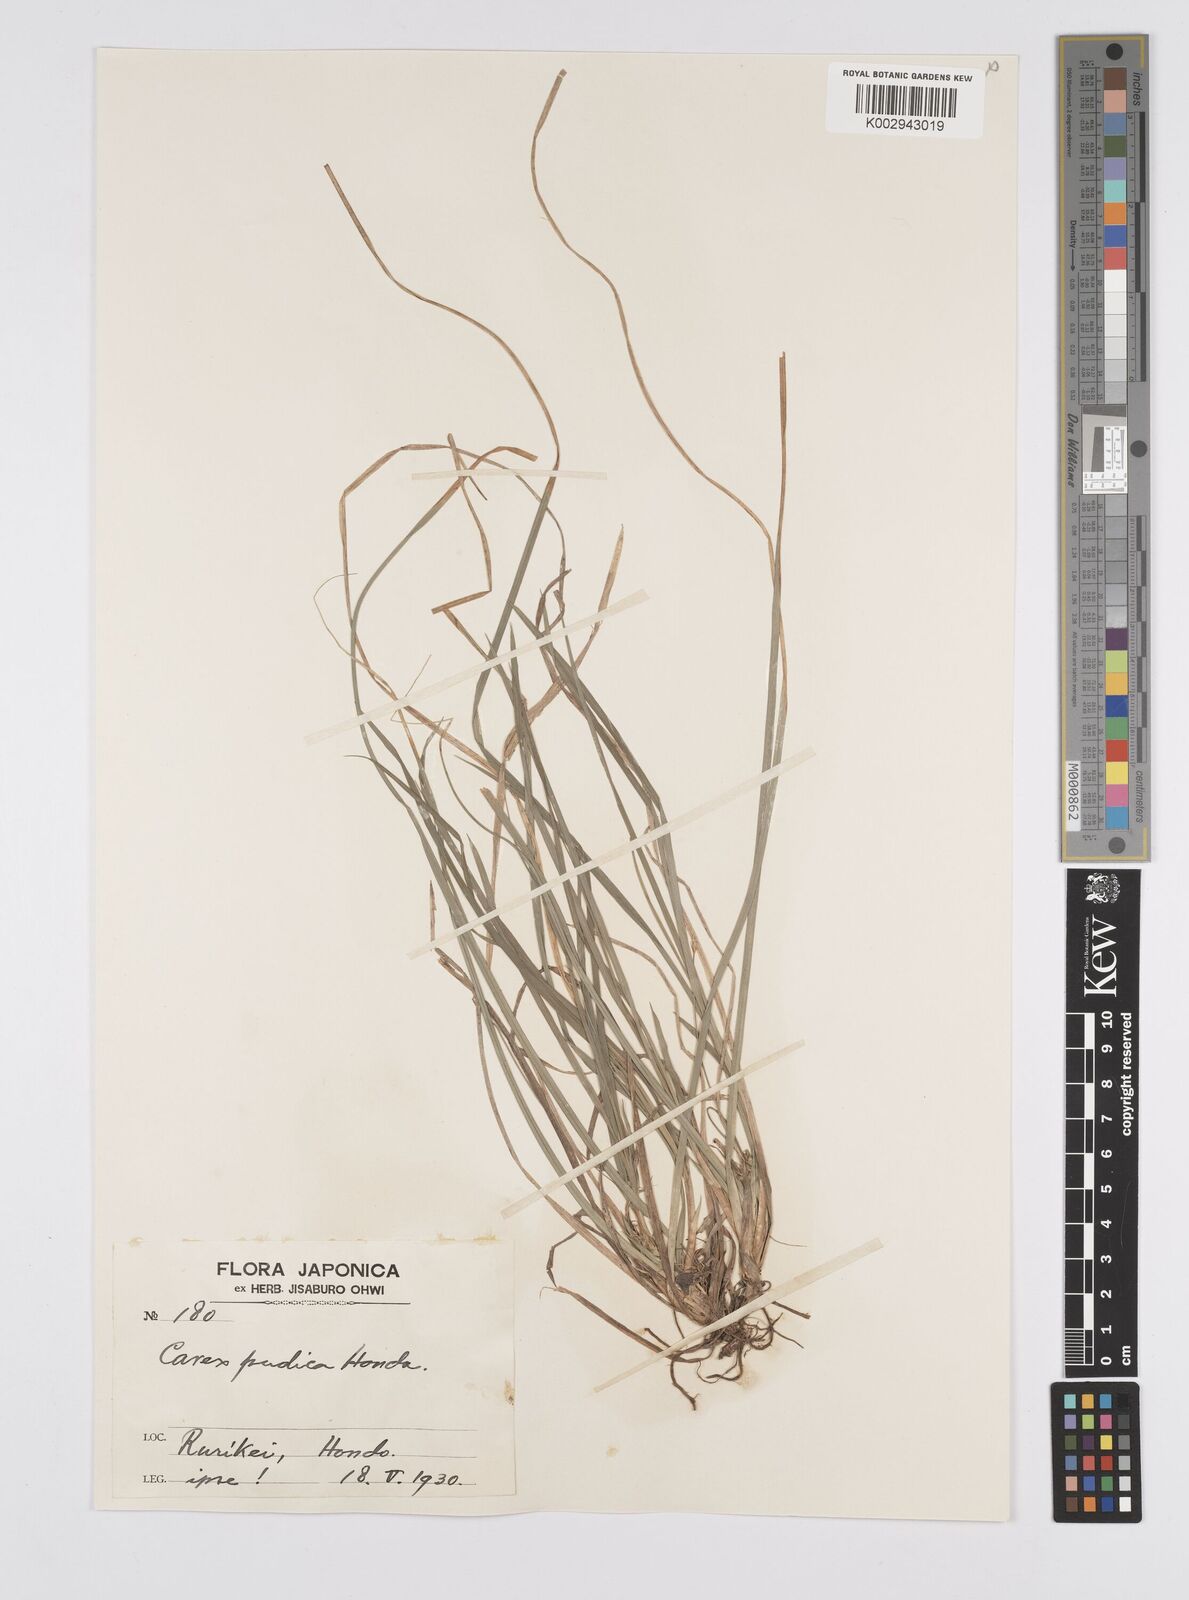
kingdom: Plantae
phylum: Tracheophyta
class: Liliopsida
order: Poales
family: Cyperaceae
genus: Carex
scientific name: Carex pudica
